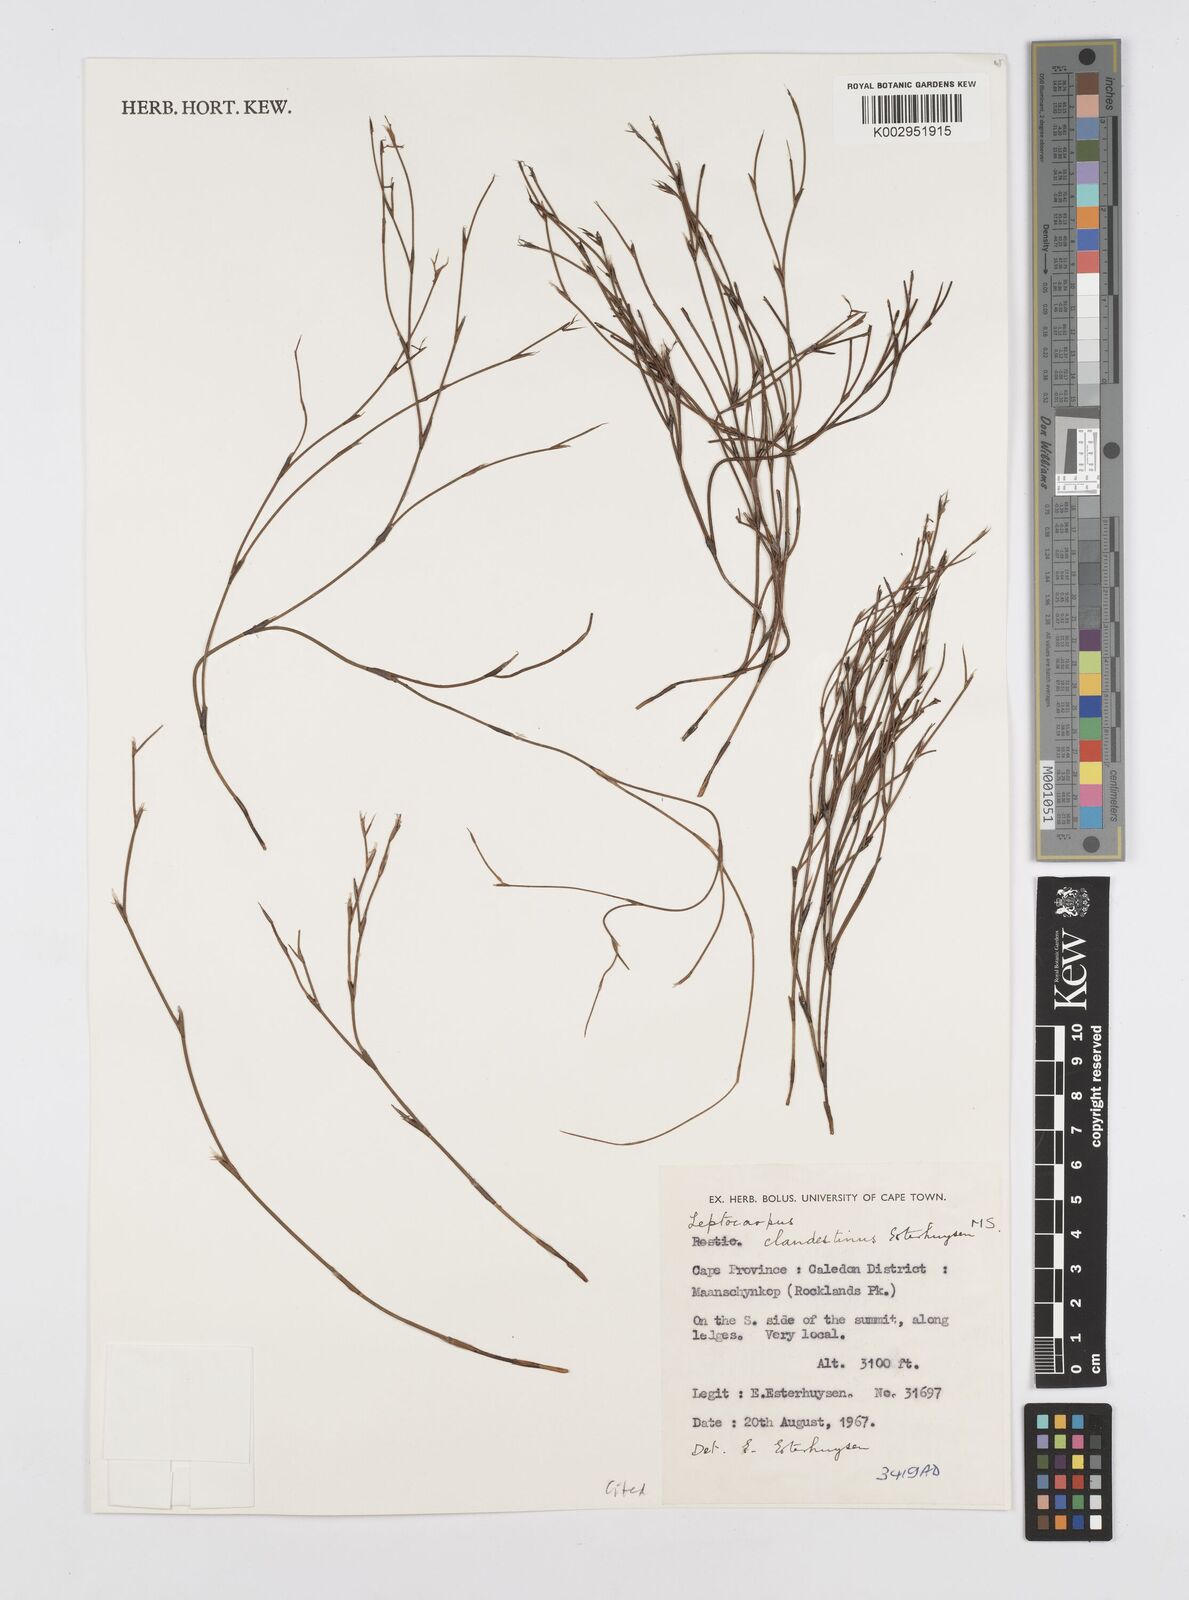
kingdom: Plantae
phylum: Tracheophyta
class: Liliopsida
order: Poales
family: Restionaceae
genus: Restio
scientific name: Restio clandestinus
